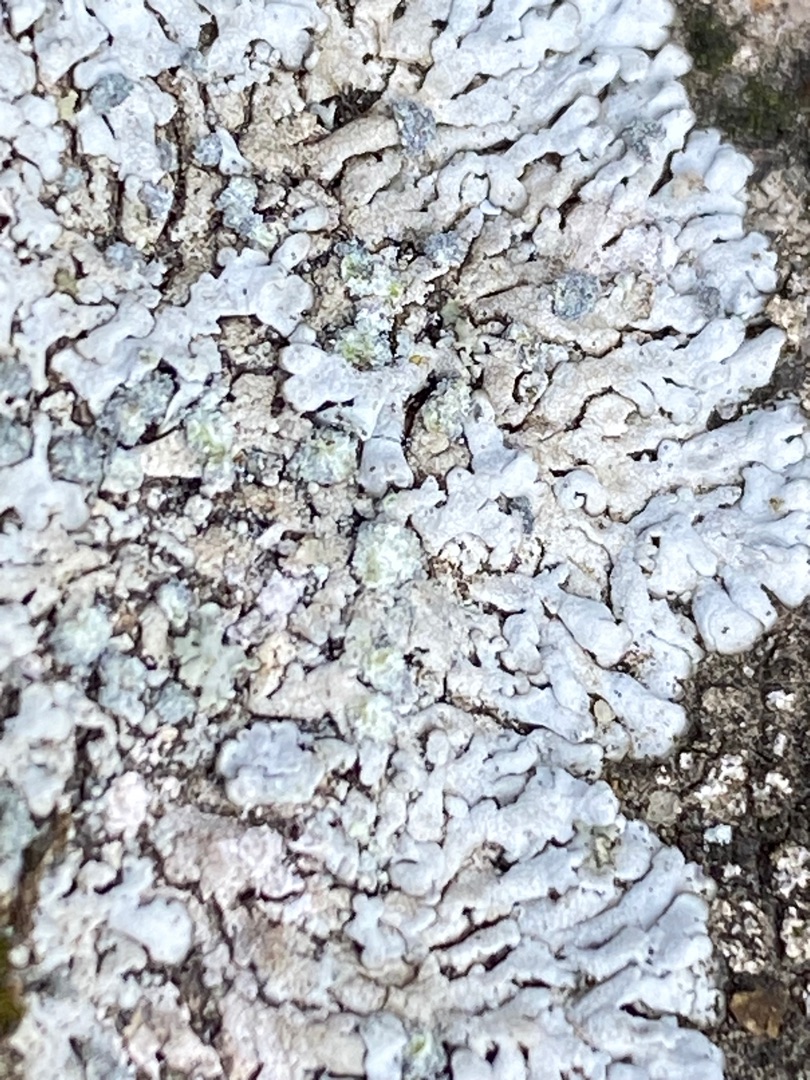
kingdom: Fungi
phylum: Ascomycota
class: Lecanoromycetes
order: Caliciales
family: Physciaceae
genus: Physcia
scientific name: Physcia caesia
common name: Blågrå rosetlav
